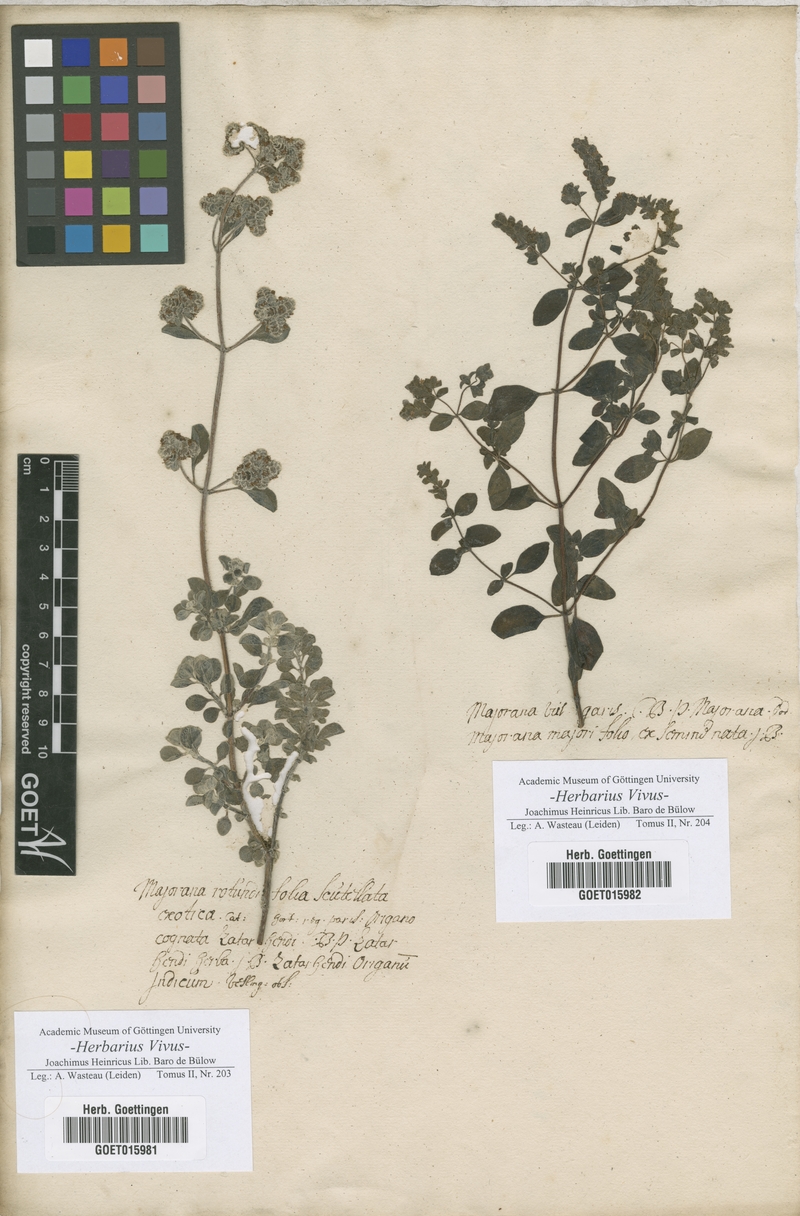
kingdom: Plantae
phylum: Tracheophyta
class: Magnoliopsida
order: Lamiales
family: Lamiaceae
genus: Majorana
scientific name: Majorana
